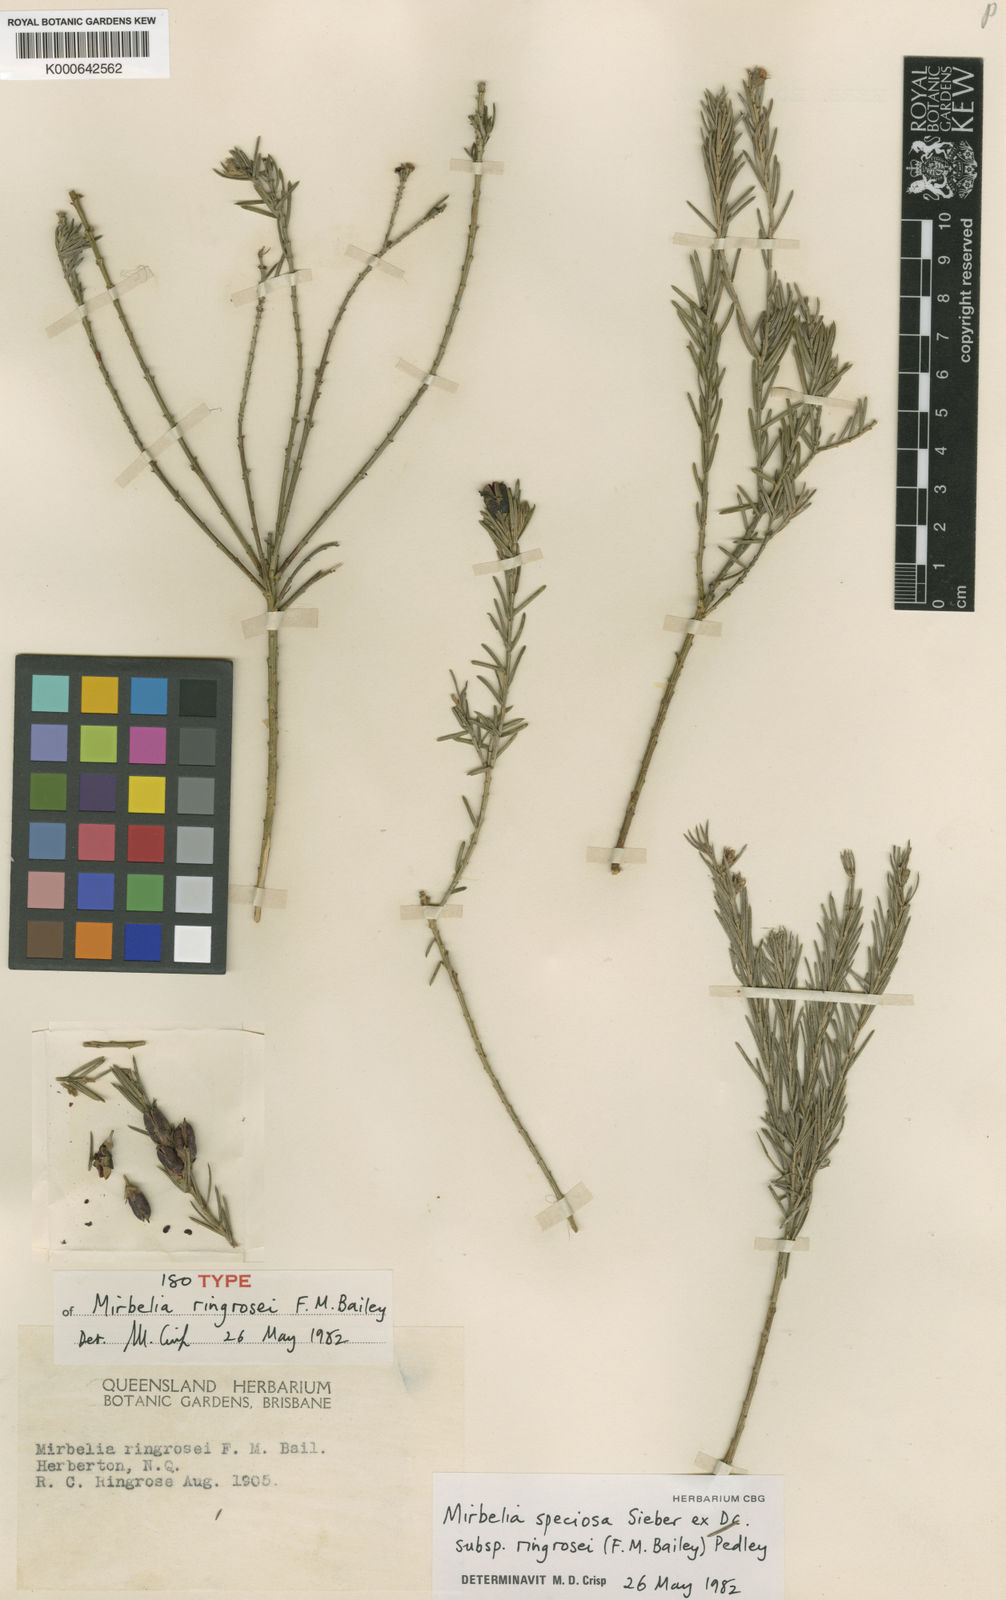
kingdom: Plantae
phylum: Tracheophyta
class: Magnoliopsida
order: Fabales
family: Fabaceae
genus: Mirbelia
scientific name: Mirbelia speciosa
